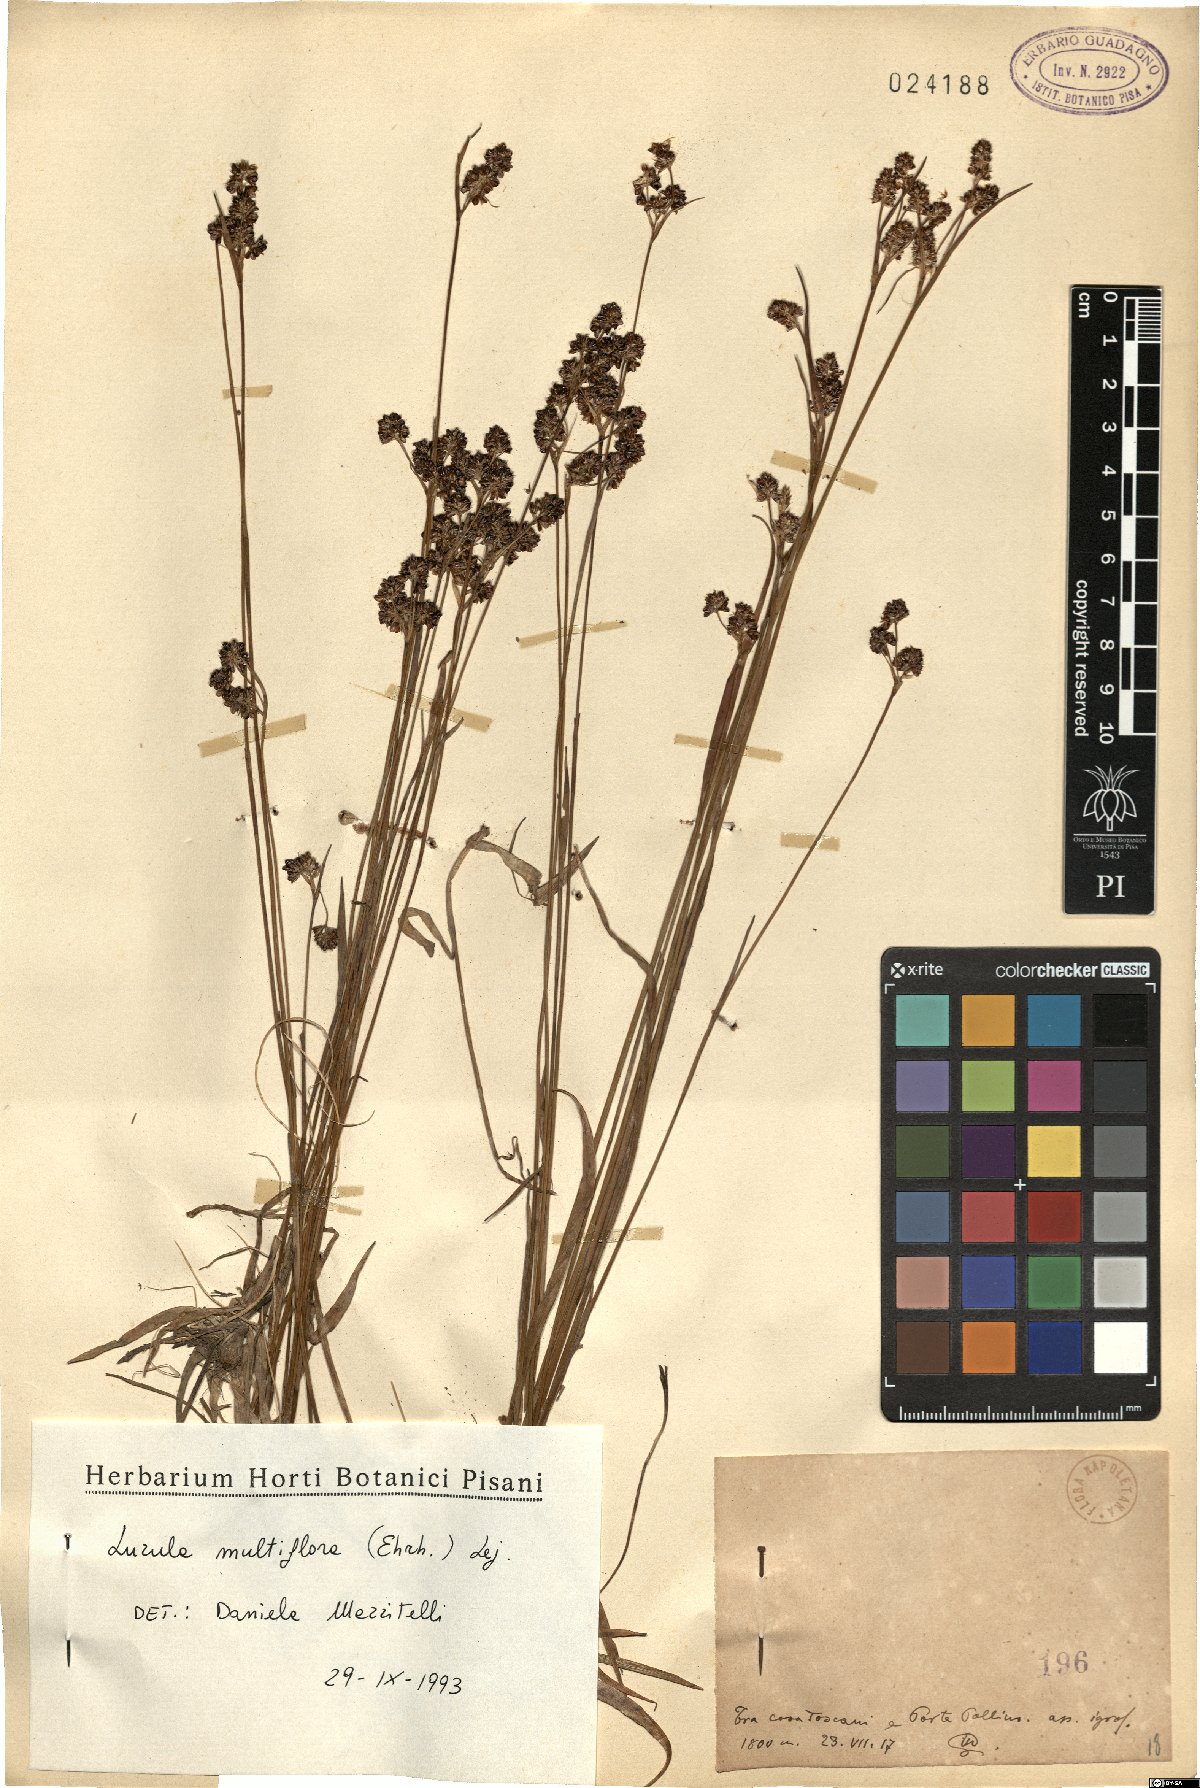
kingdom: Plantae
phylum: Tracheophyta
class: Liliopsida
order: Poales
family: Juncaceae
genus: Luzula
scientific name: Luzula multiflora
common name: Heath wood-rush
